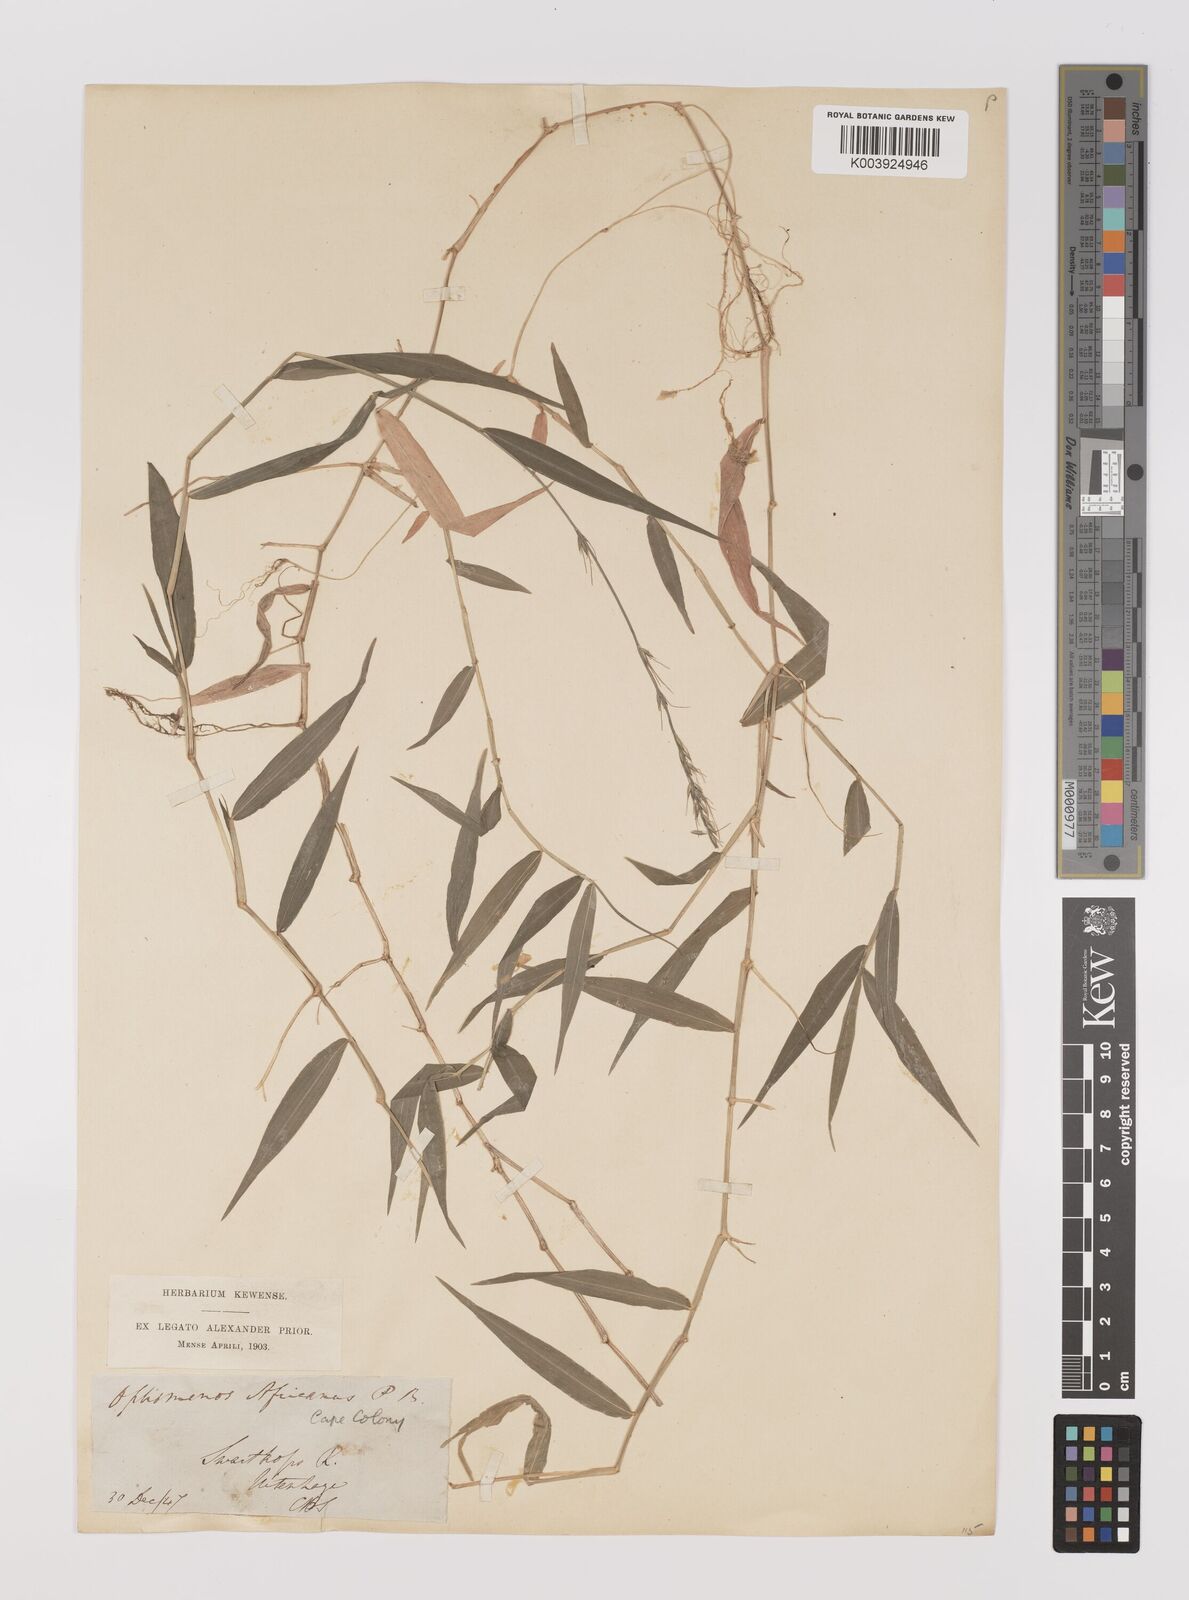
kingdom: Plantae
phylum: Tracheophyta
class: Liliopsida
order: Poales
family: Poaceae
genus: Oplismenus
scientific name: Oplismenus undulatifolius
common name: Wavyleaf basketgrass
